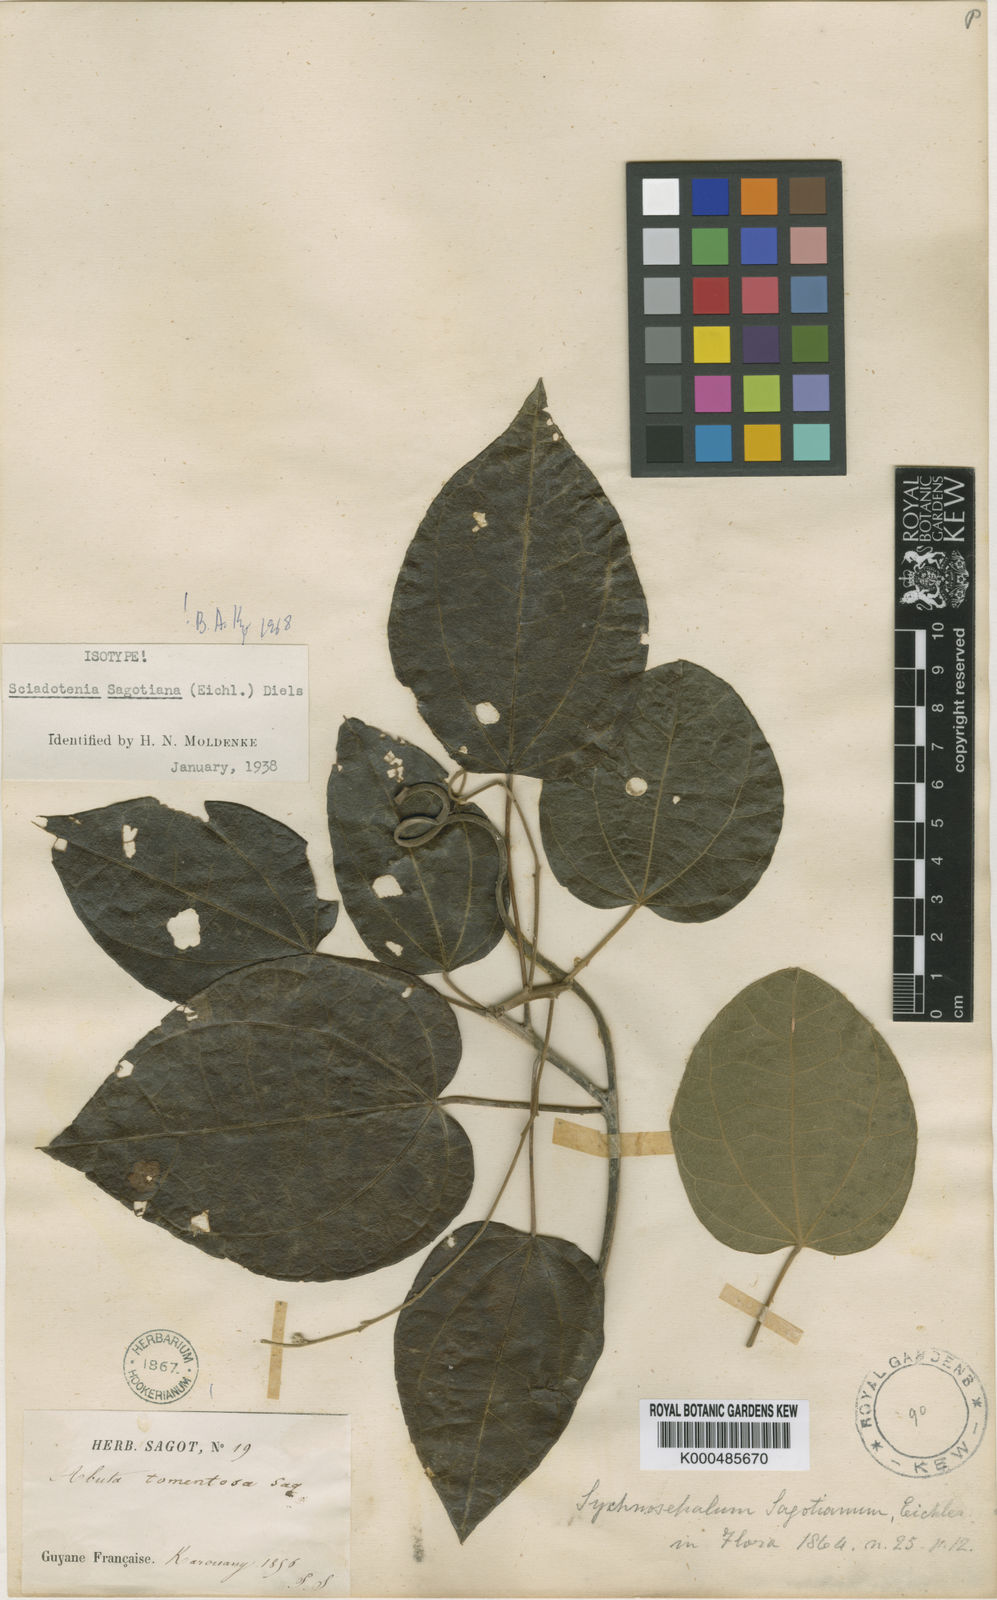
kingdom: Plantae
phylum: Tracheophyta
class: Magnoliopsida
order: Ranunculales
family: Menispermaceae
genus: Sciadotenia
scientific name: Sciadotenia sagotiana
